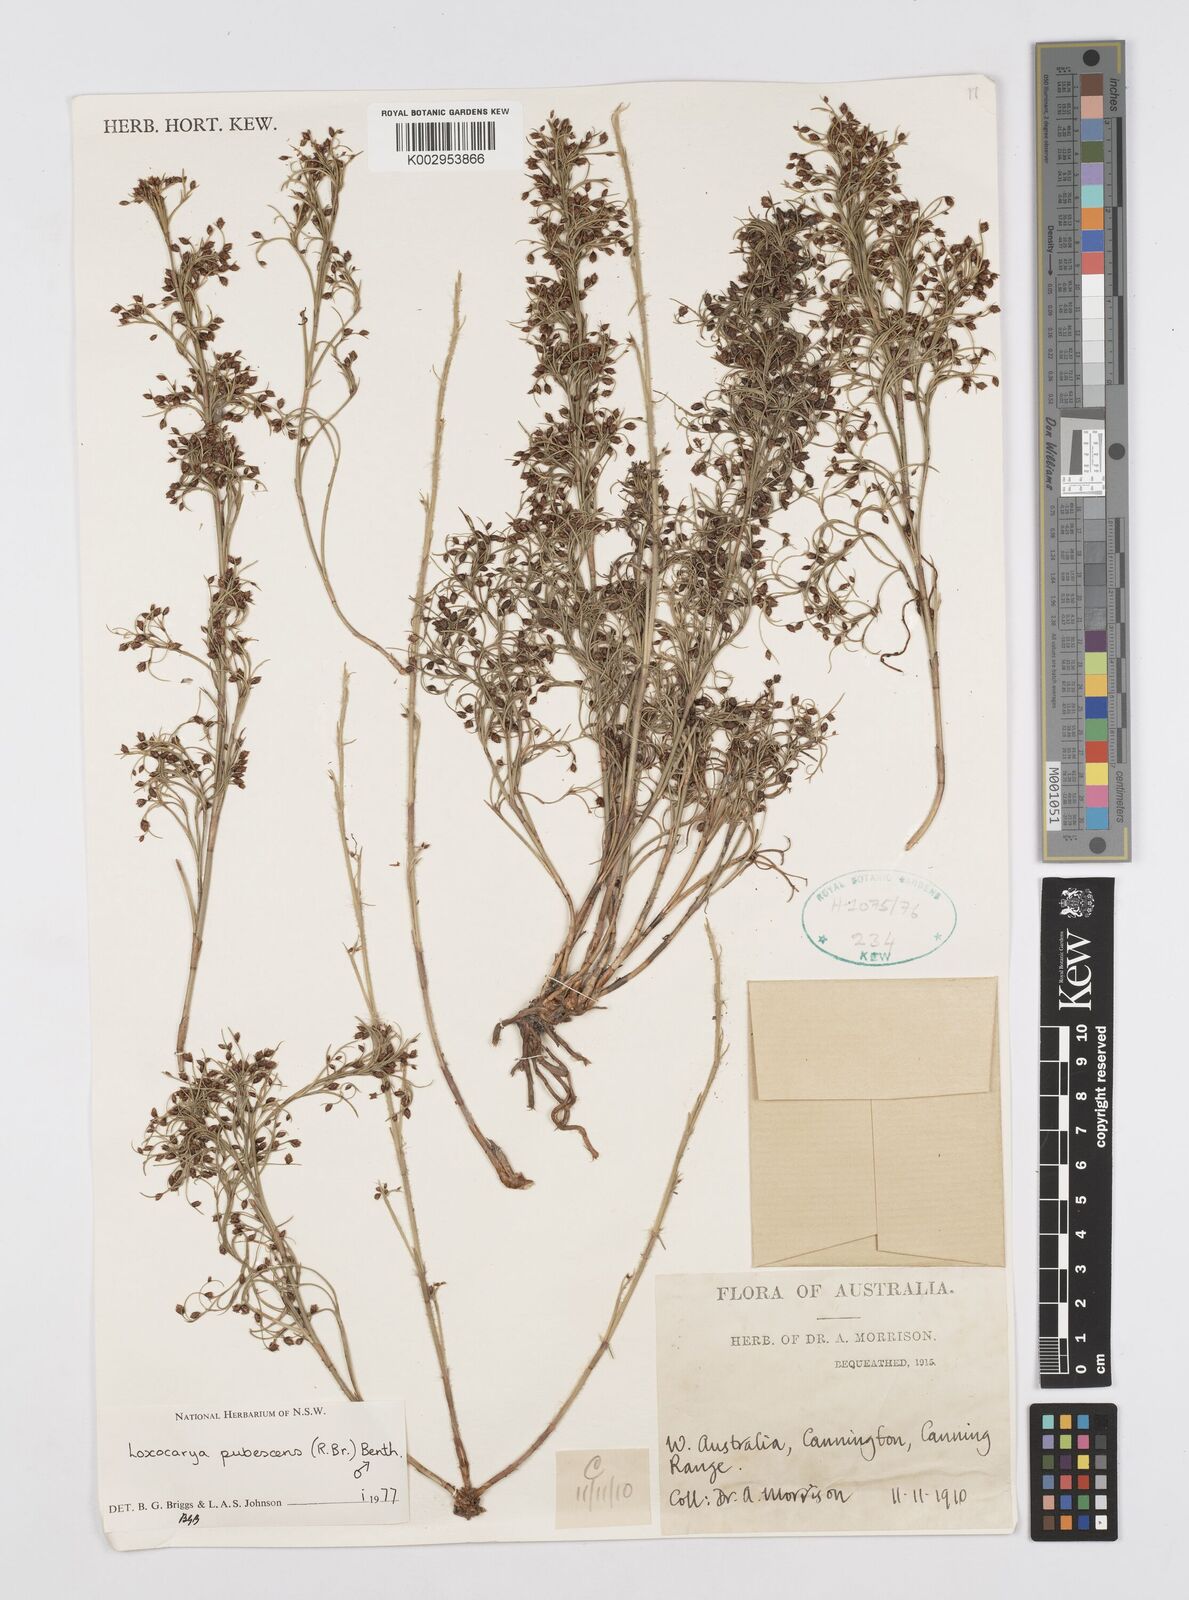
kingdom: Plantae
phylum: Tracheophyta
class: Liliopsida
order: Poales
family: Restionaceae
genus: Hypolaena
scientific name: Hypolaena pubescens
